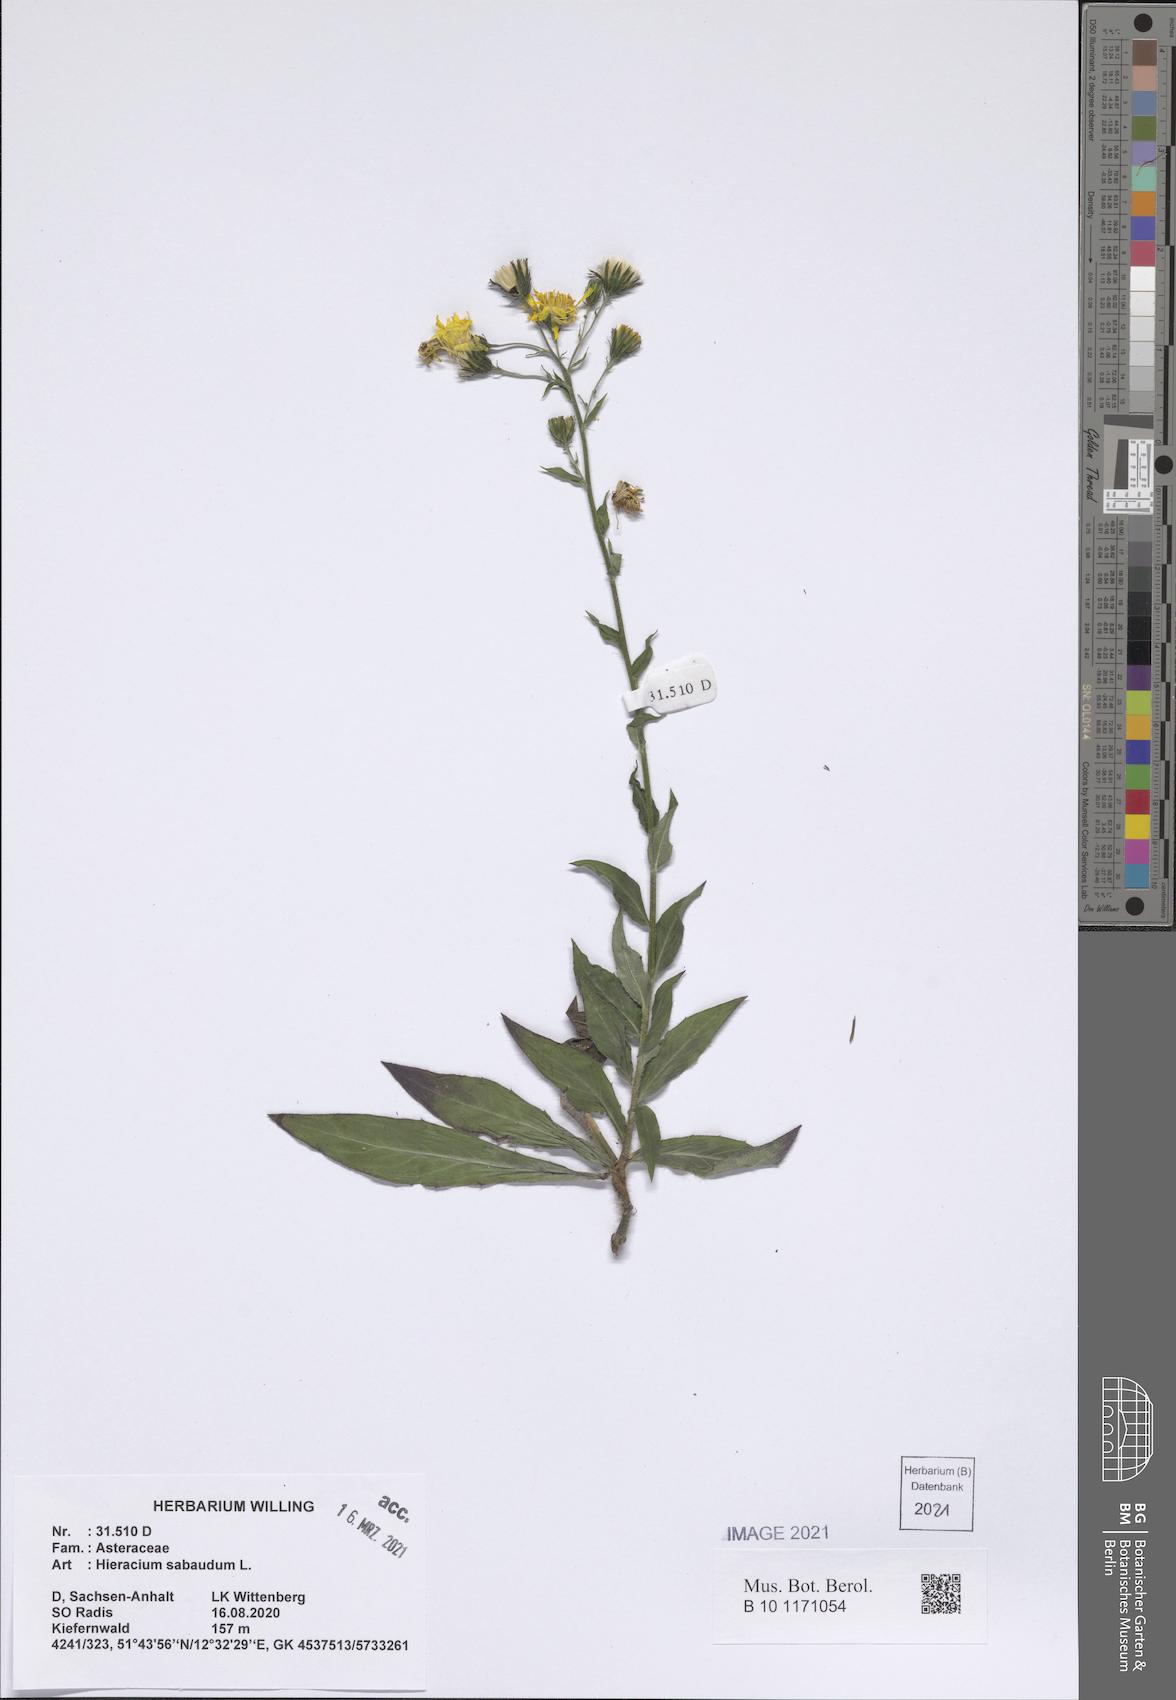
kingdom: Plantae
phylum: Tracheophyta
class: Magnoliopsida
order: Asterales
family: Asteraceae
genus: Hieracium
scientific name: Hieracium sabaudum
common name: New england hawkweed
